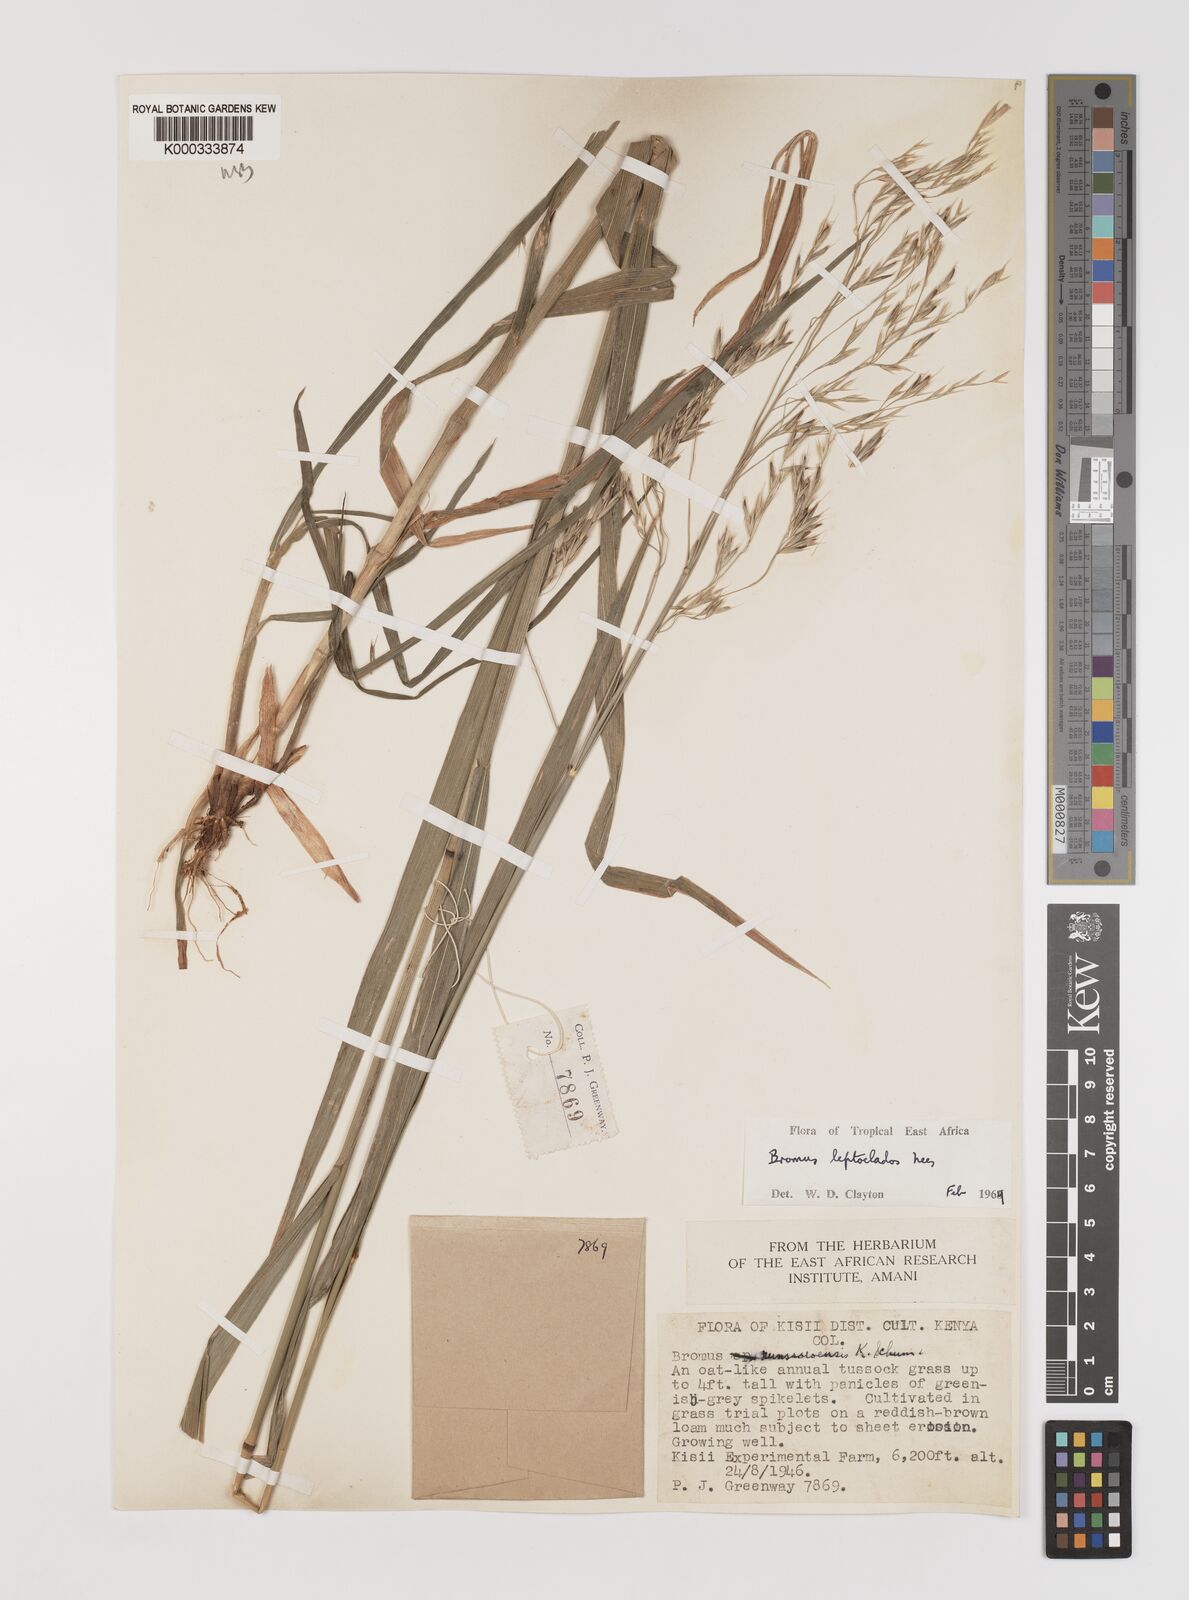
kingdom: Plantae
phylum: Tracheophyta
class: Liliopsida
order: Poales
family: Poaceae
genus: Bromus
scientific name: Bromus leptoclados
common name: Mountain bromegrass
